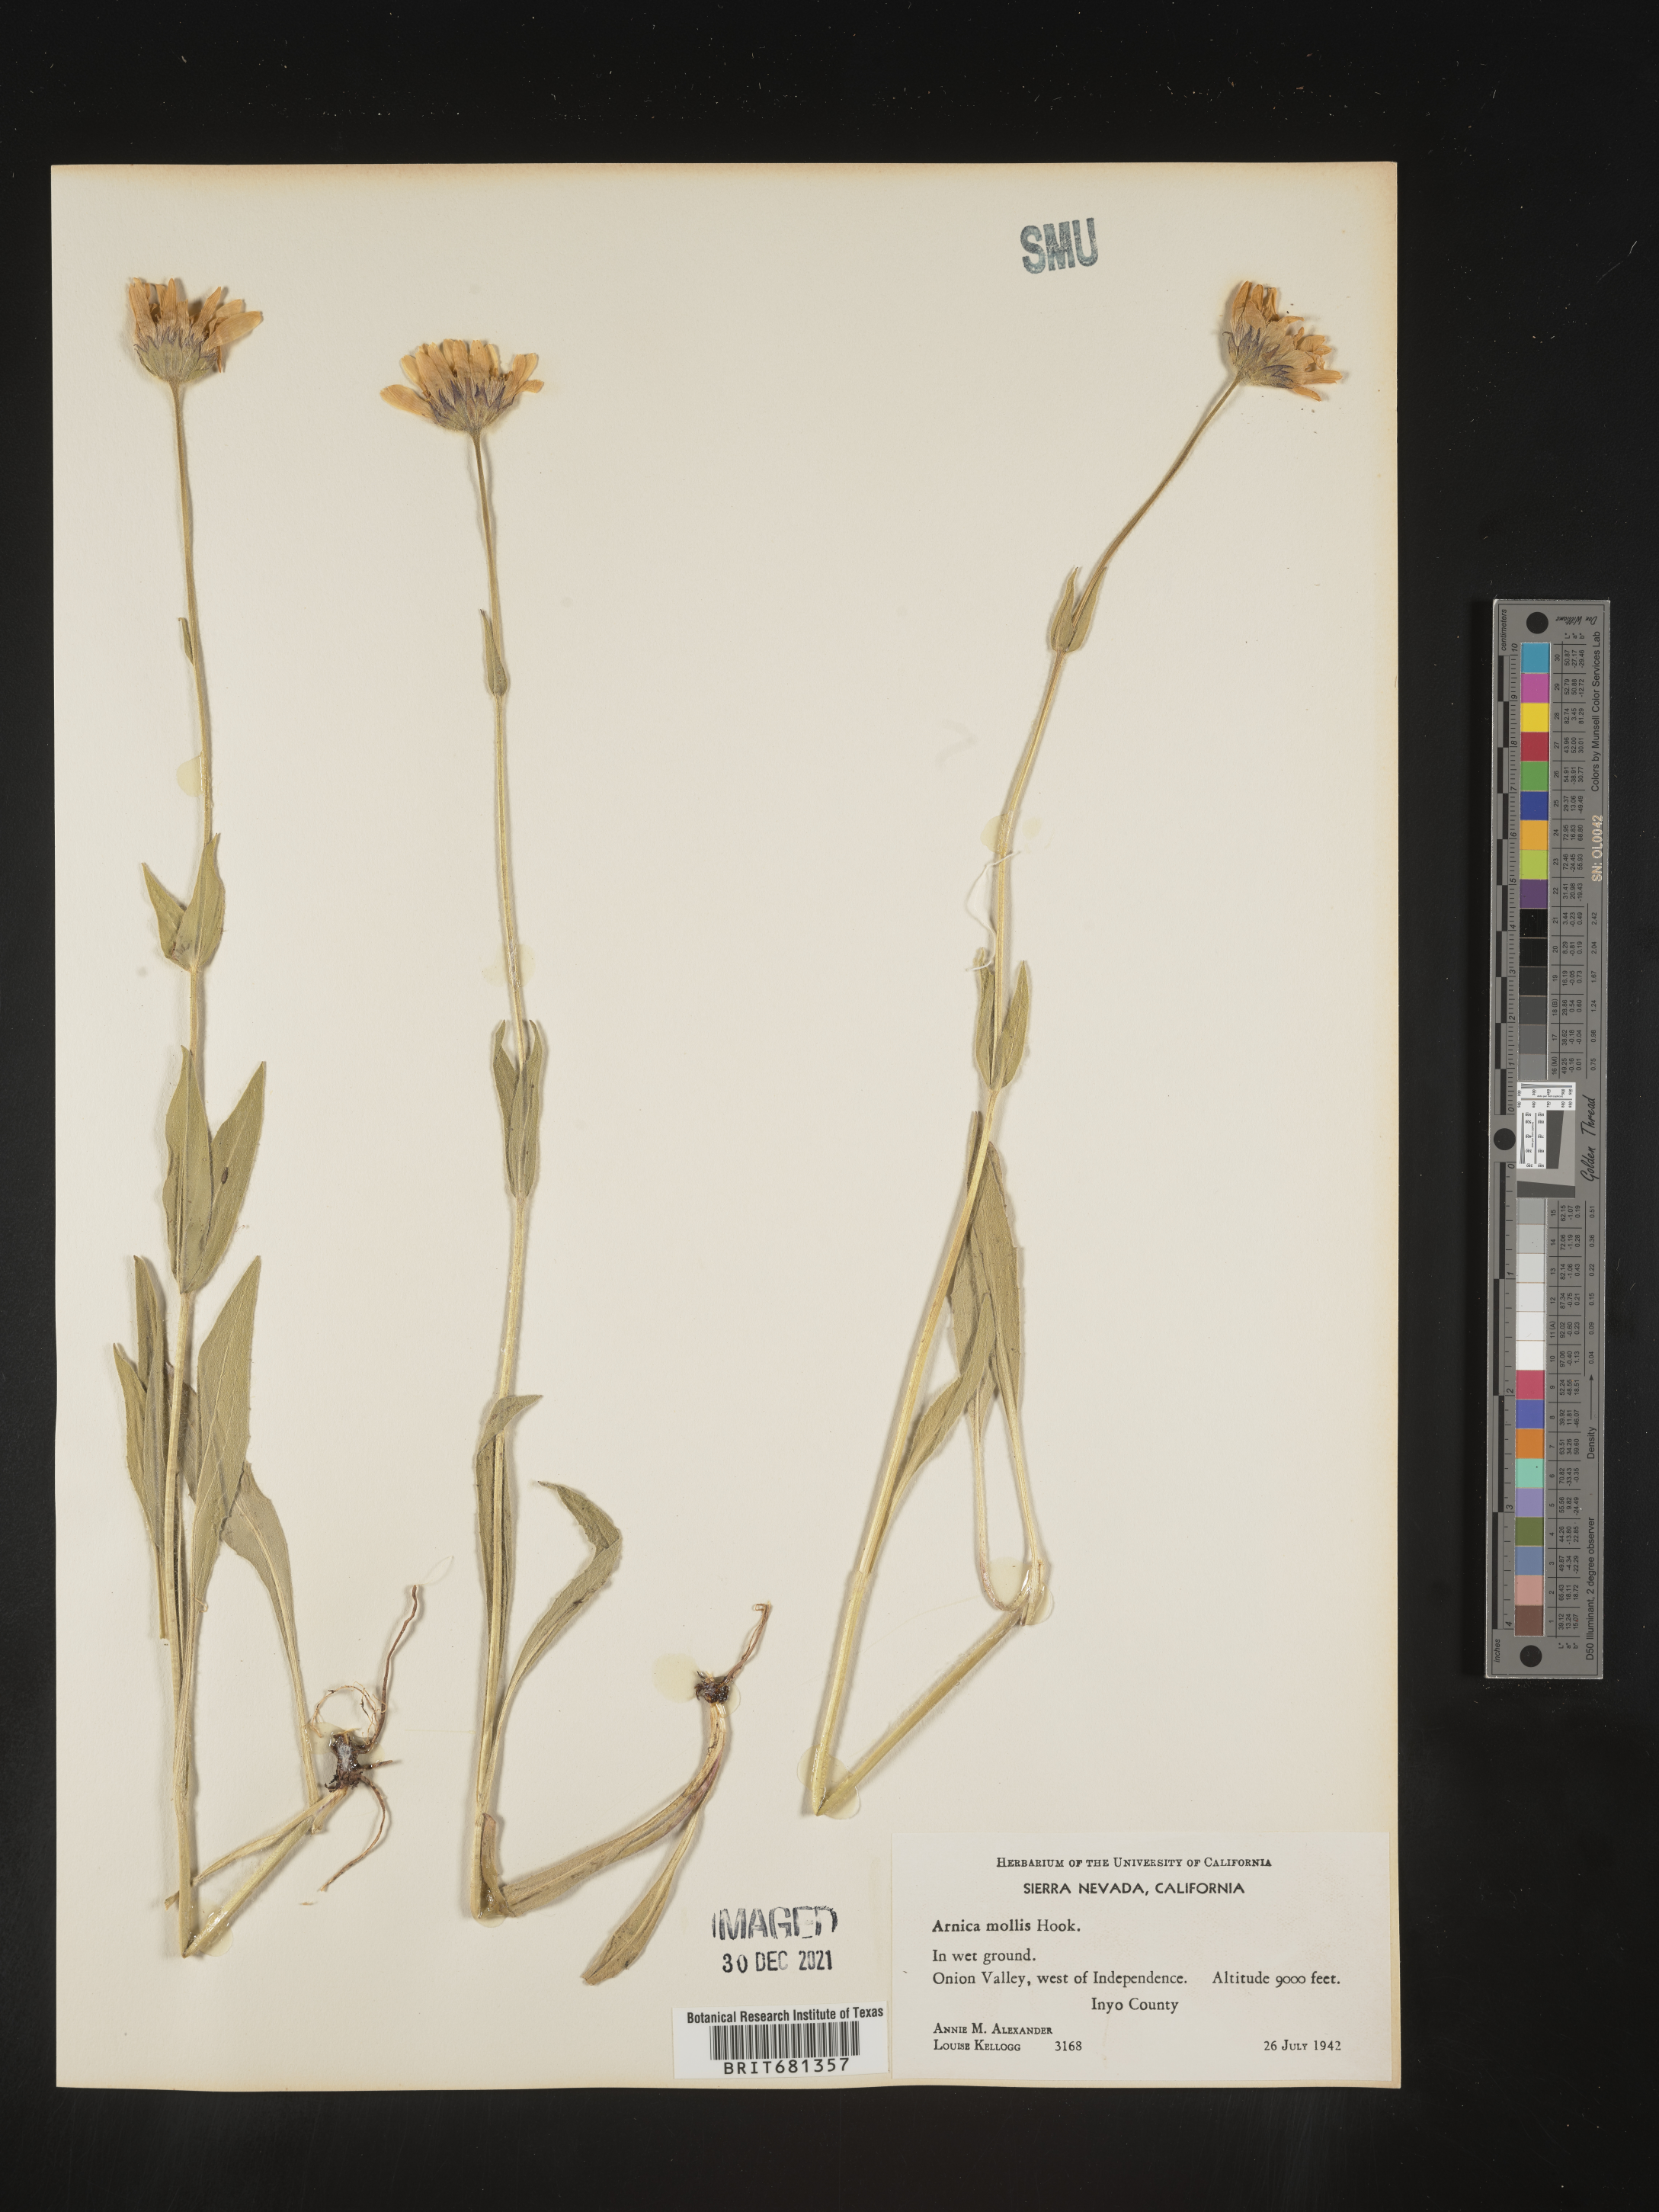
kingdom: Plantae
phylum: Tracheophyta
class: Magnoliopsida
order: Asterales
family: Asteraceae
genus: Arnica
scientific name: Arnica mollis
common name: Hairy arnica
